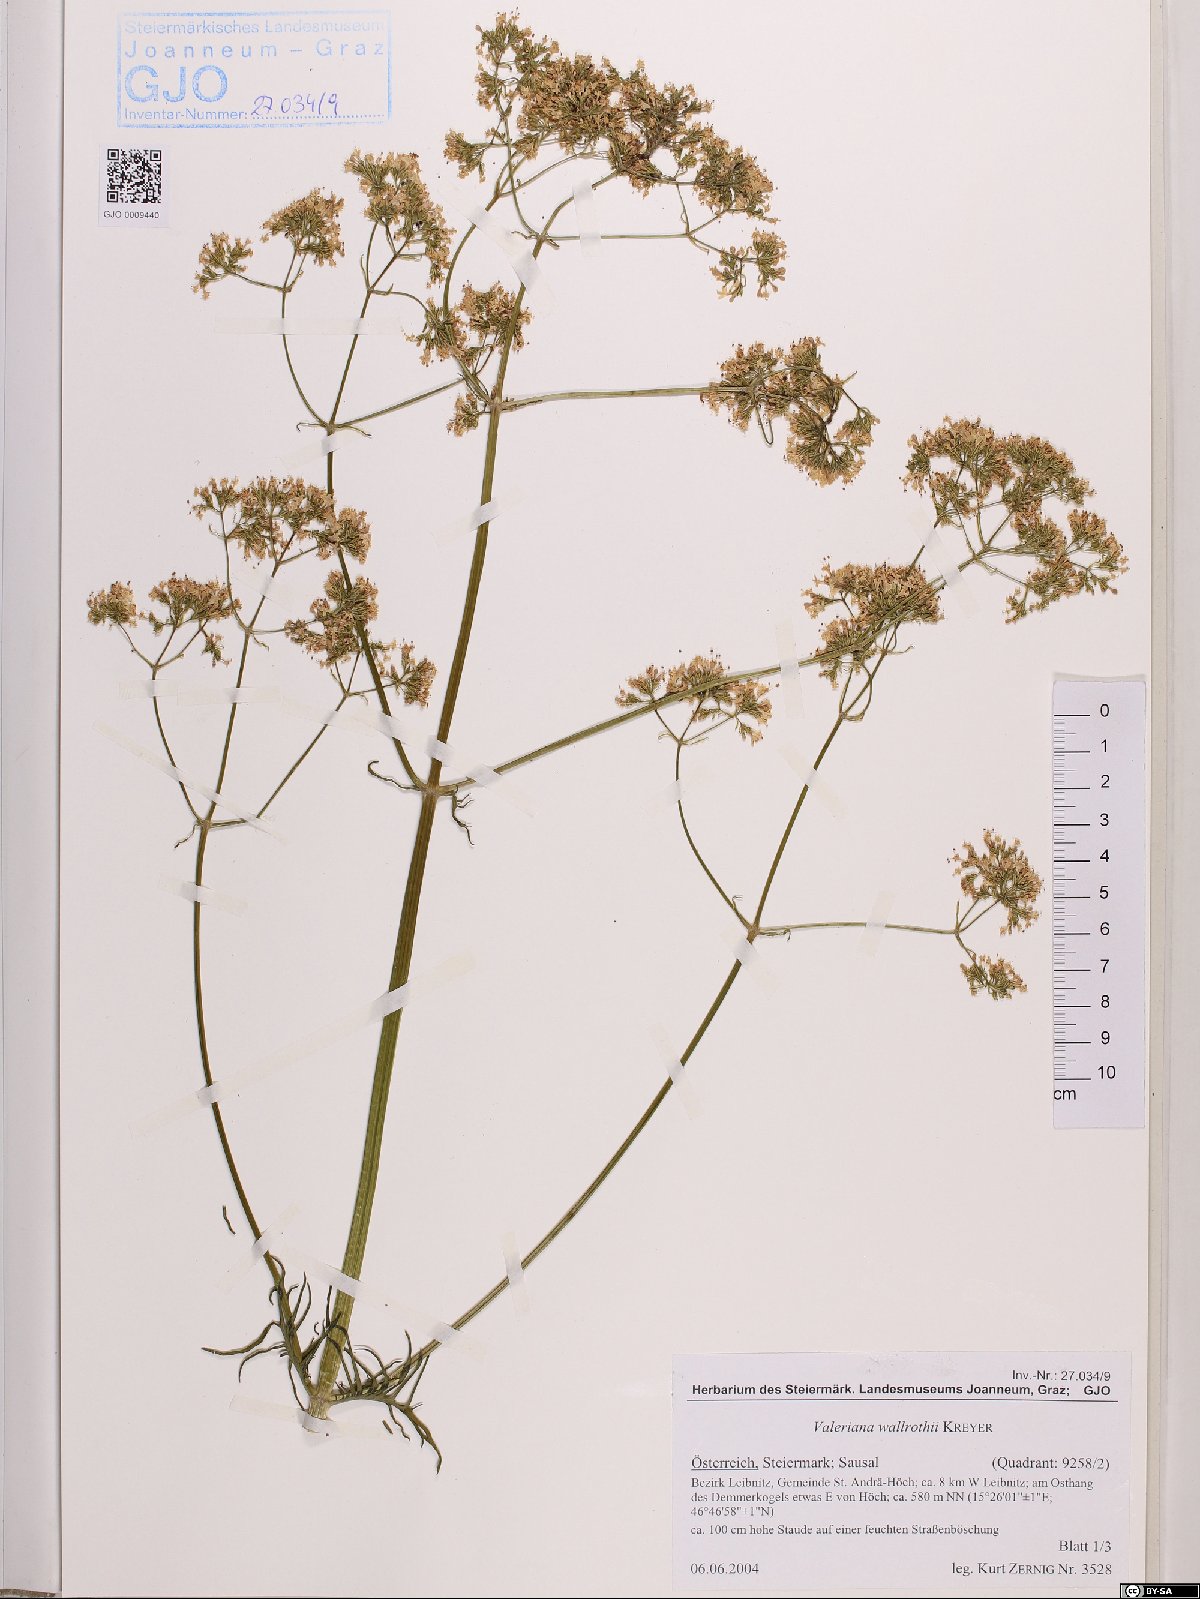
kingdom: Plantae
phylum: Tracheophyta
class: Magnoliopsida
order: Dipsacales
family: Caprifoliaceae
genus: Valeriana
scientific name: Valeriana pratensis
